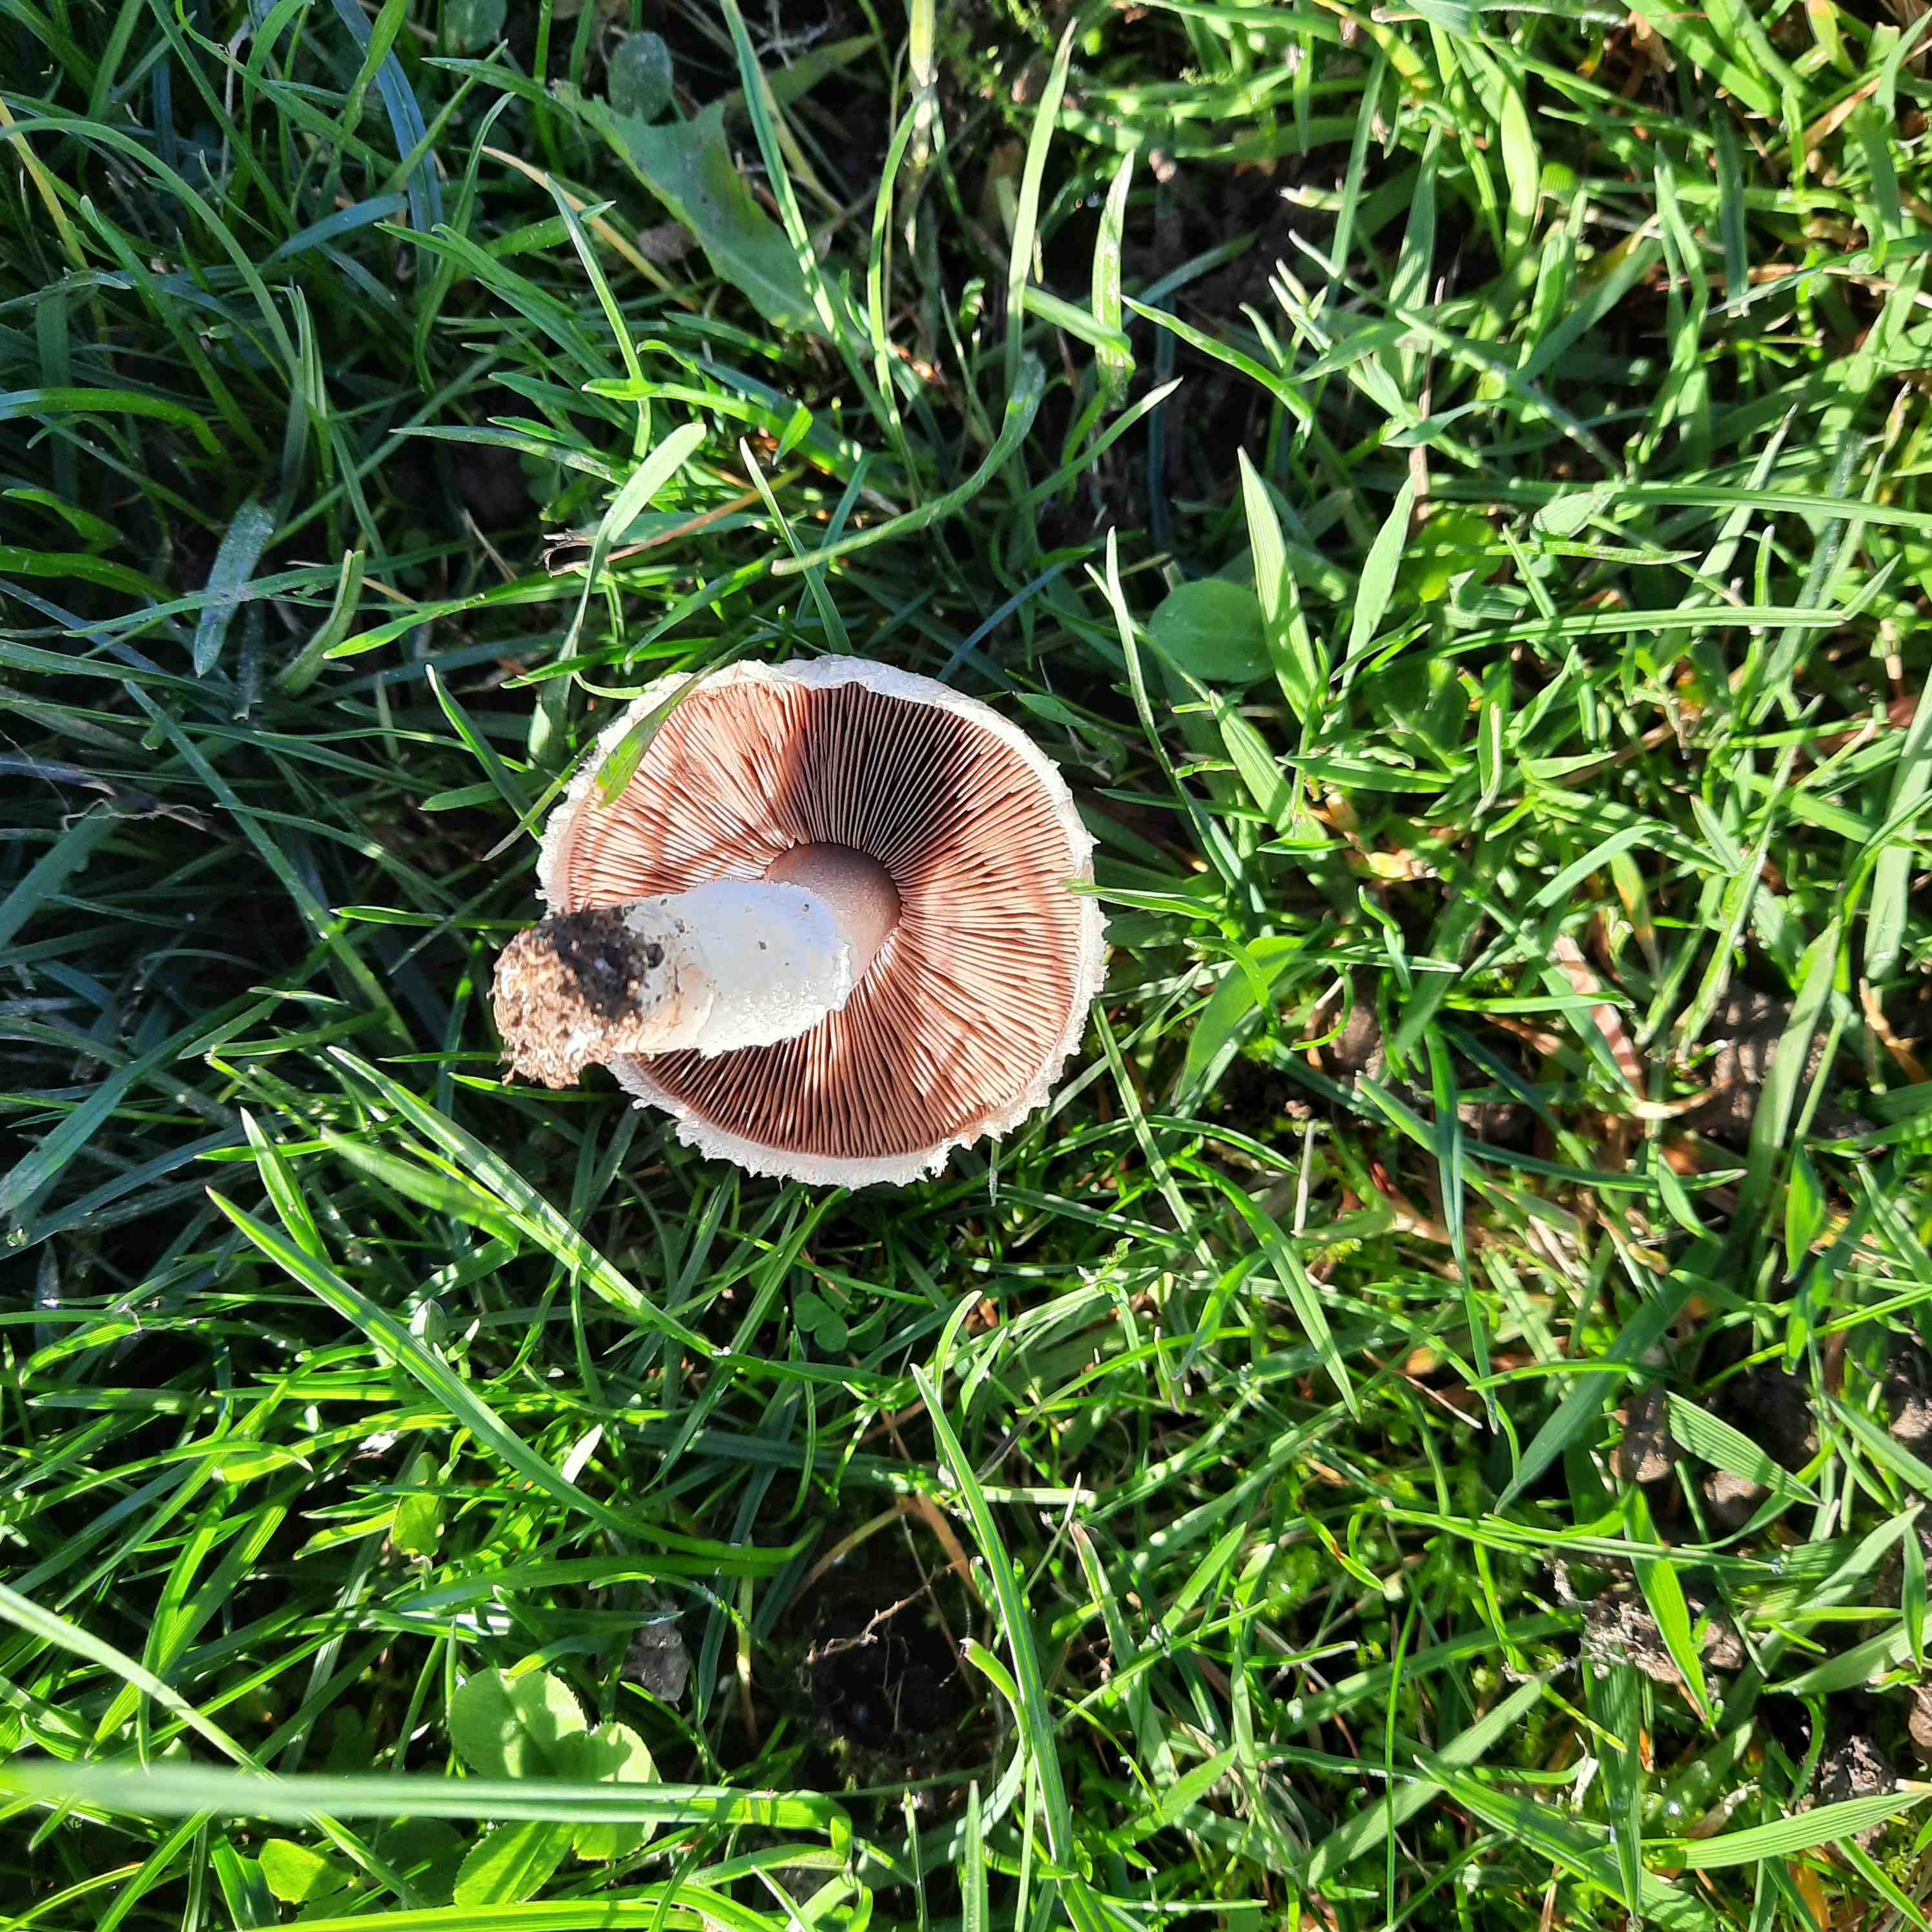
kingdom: Fungi
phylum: Basidiomycota
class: Agaricomycetes
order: Agaricales
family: Agaricaceae
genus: Agaricus
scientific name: Agaricus campestris
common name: mark-champignon
